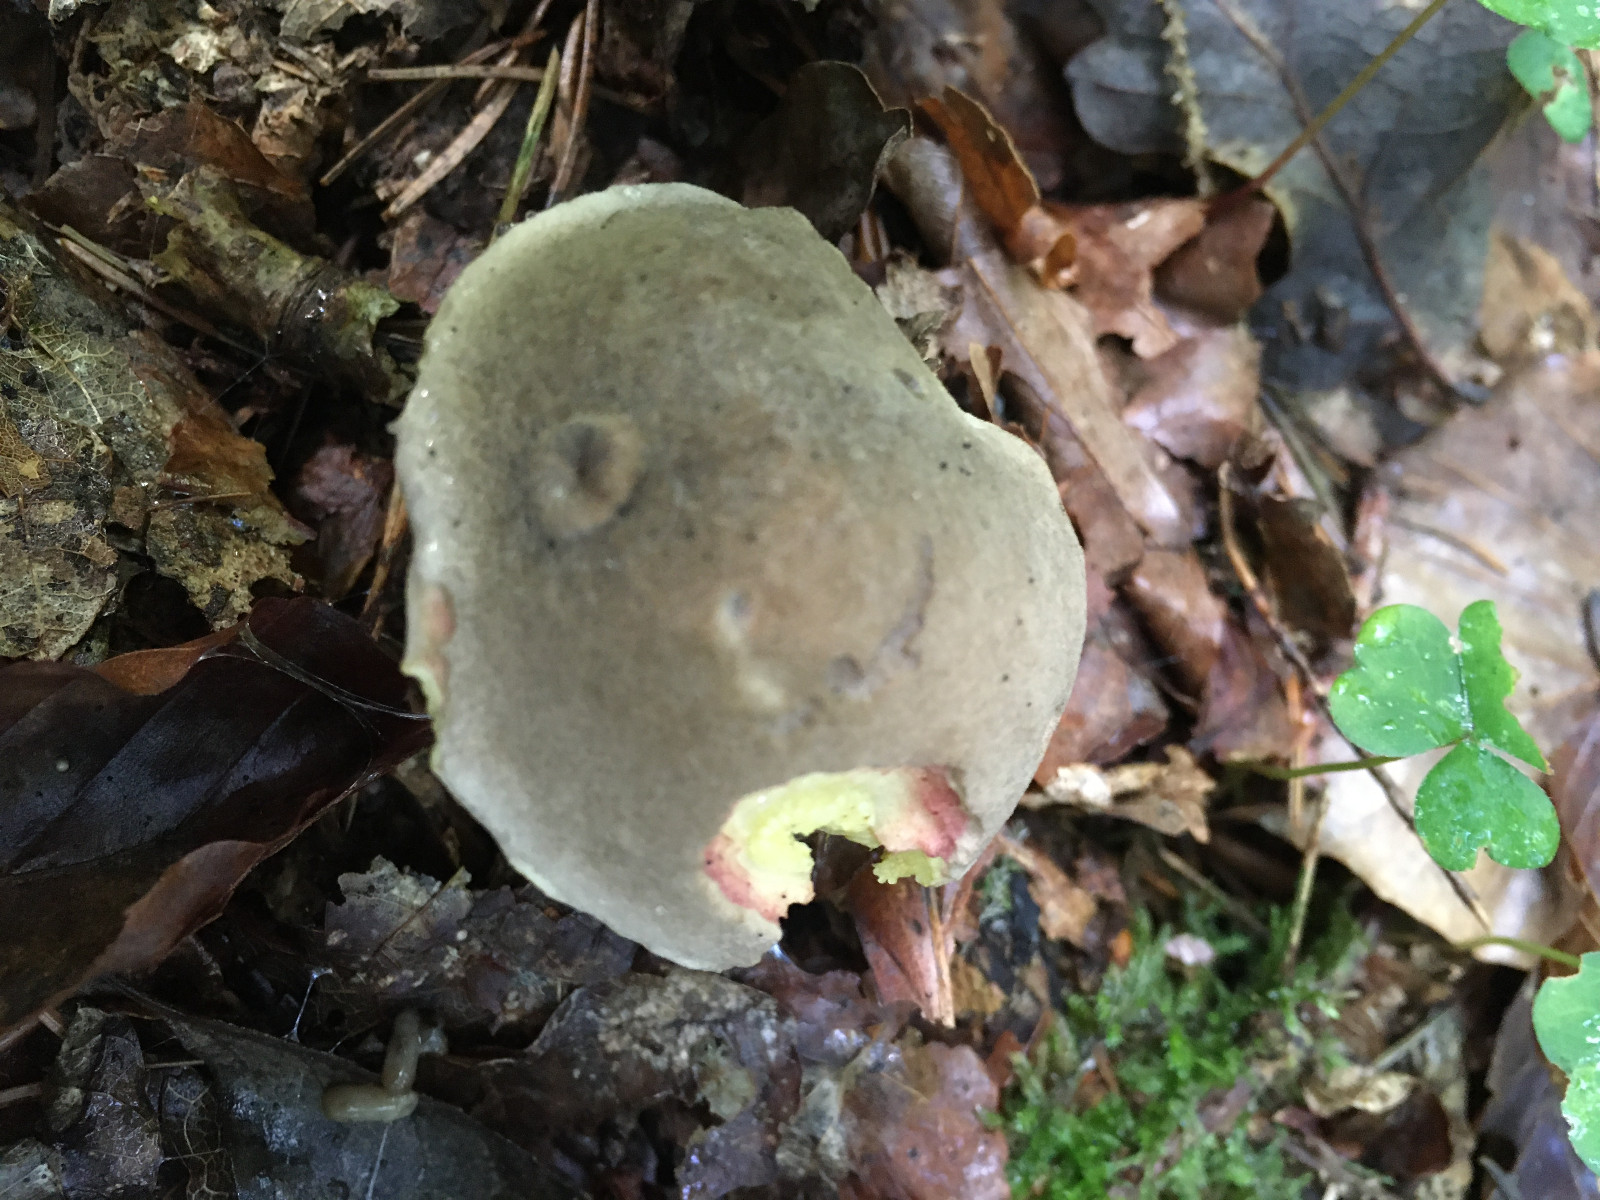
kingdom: Fungi
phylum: Basidiomycota
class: Agaricomycetes
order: Boletales
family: Boletaceae
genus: Xerocomellus
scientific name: Xerocomellus chrysenteron
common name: rødsprukken rørhat
